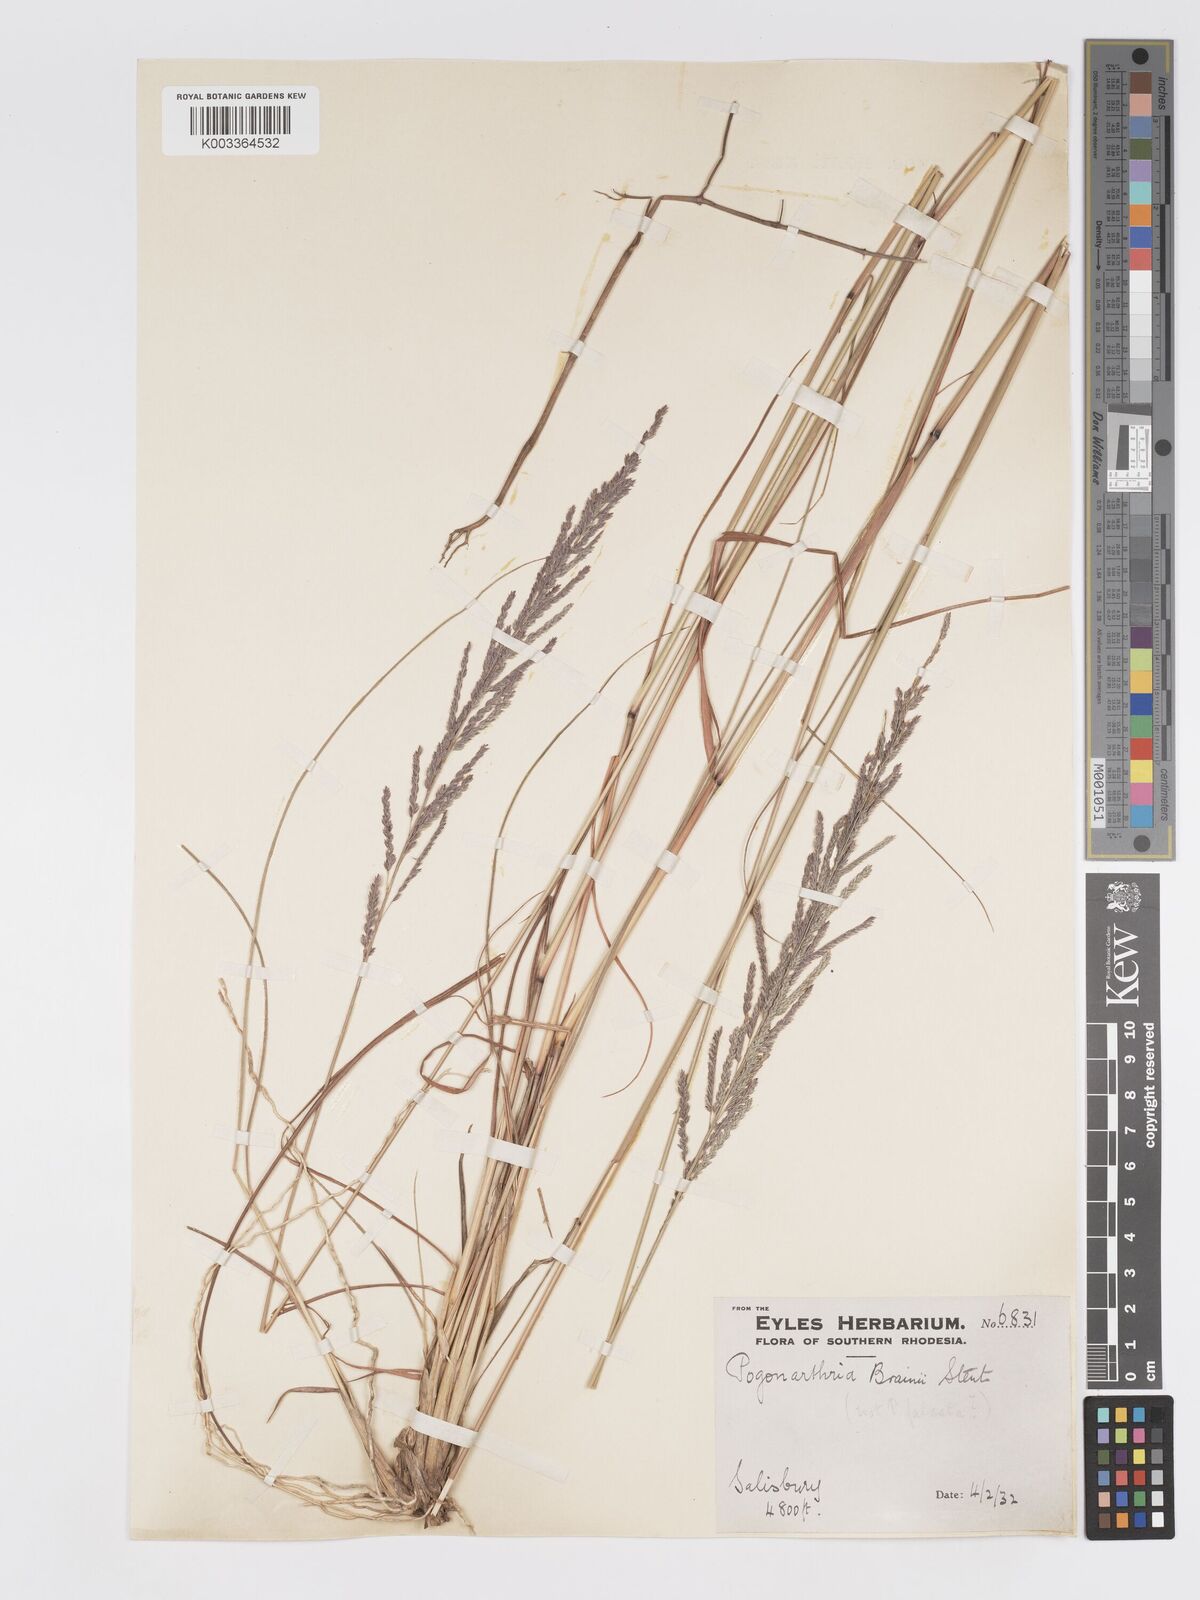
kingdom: Plantae
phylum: Tracheophyta
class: Liliopsida
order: Poales
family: Poaceae
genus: Eragrostis
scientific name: Eragrostis brainii
